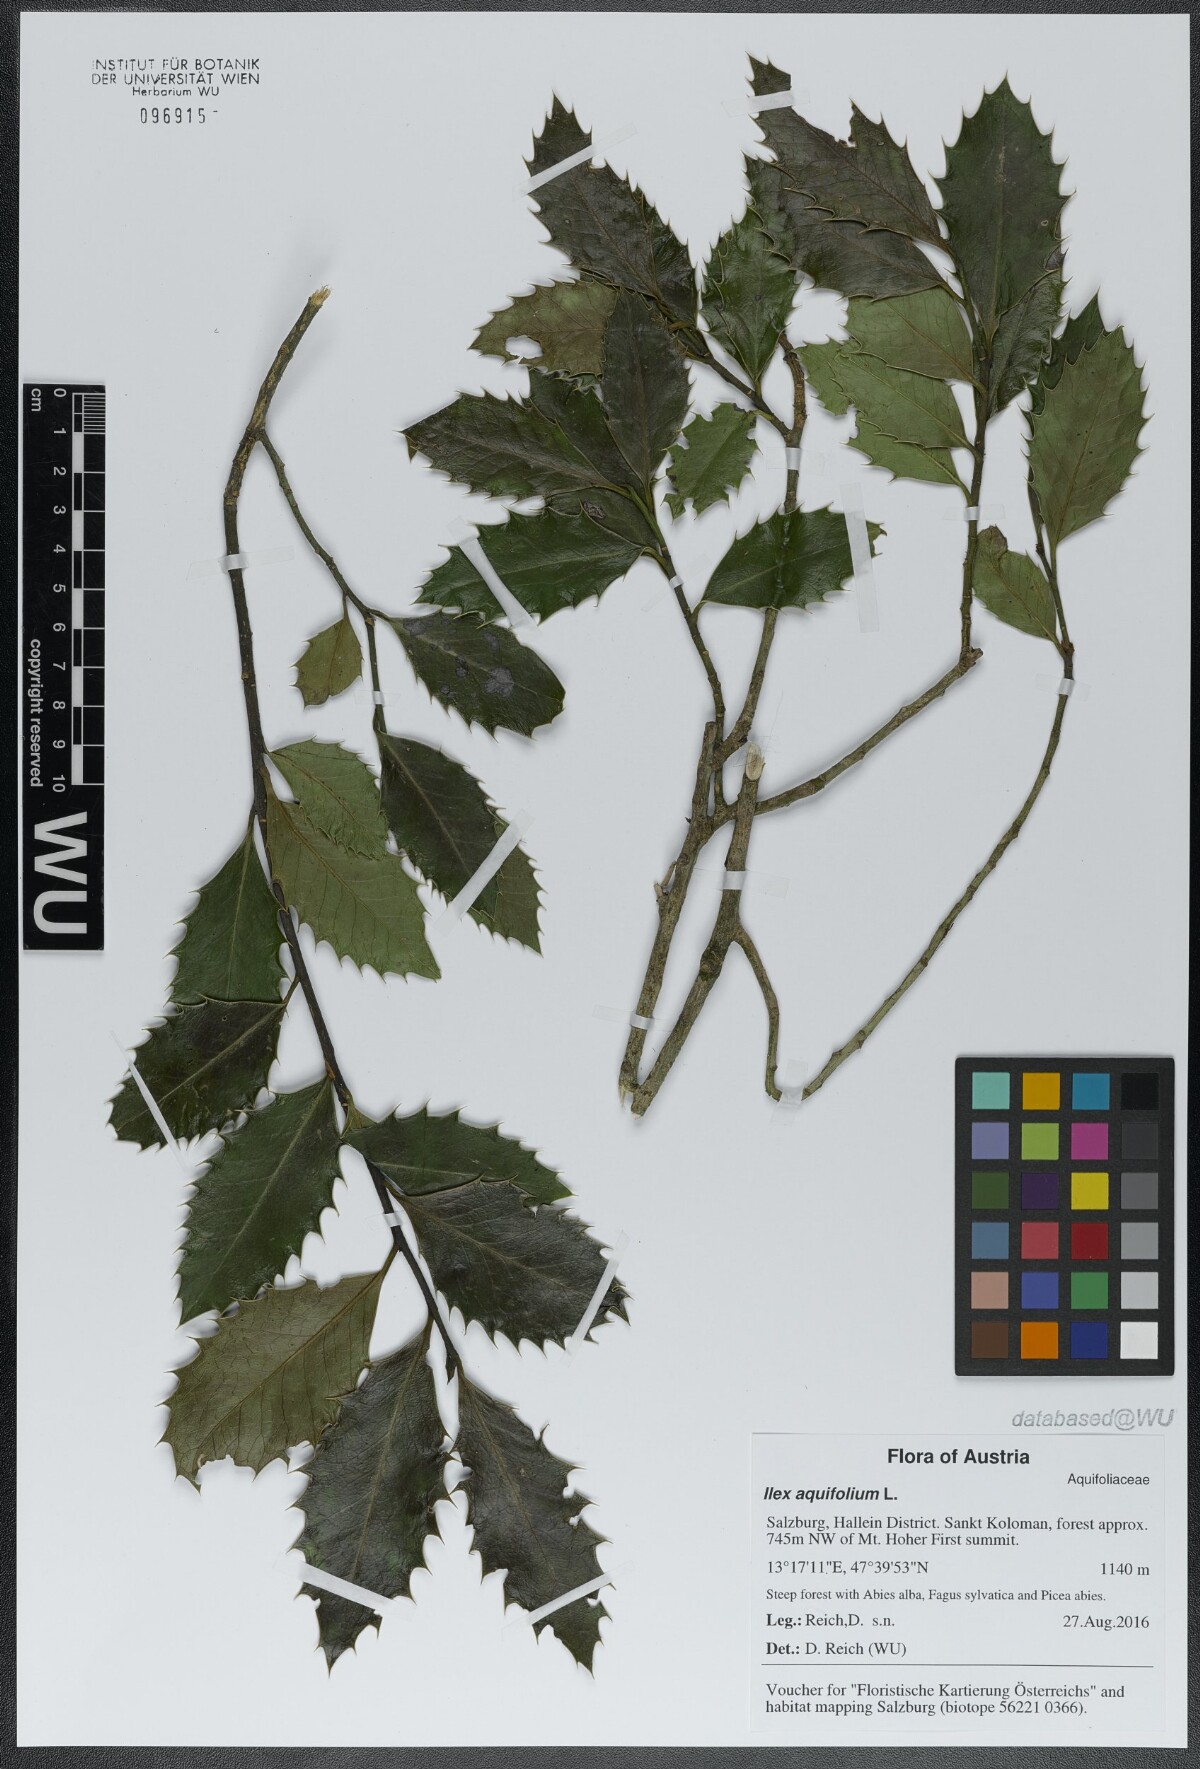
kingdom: Plantae
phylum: Tracheophyta
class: Magnoliopsida
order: Aquifoliales
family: Aquifoliaceae
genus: Ilex
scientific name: Ilex aquifolium
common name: English holly
